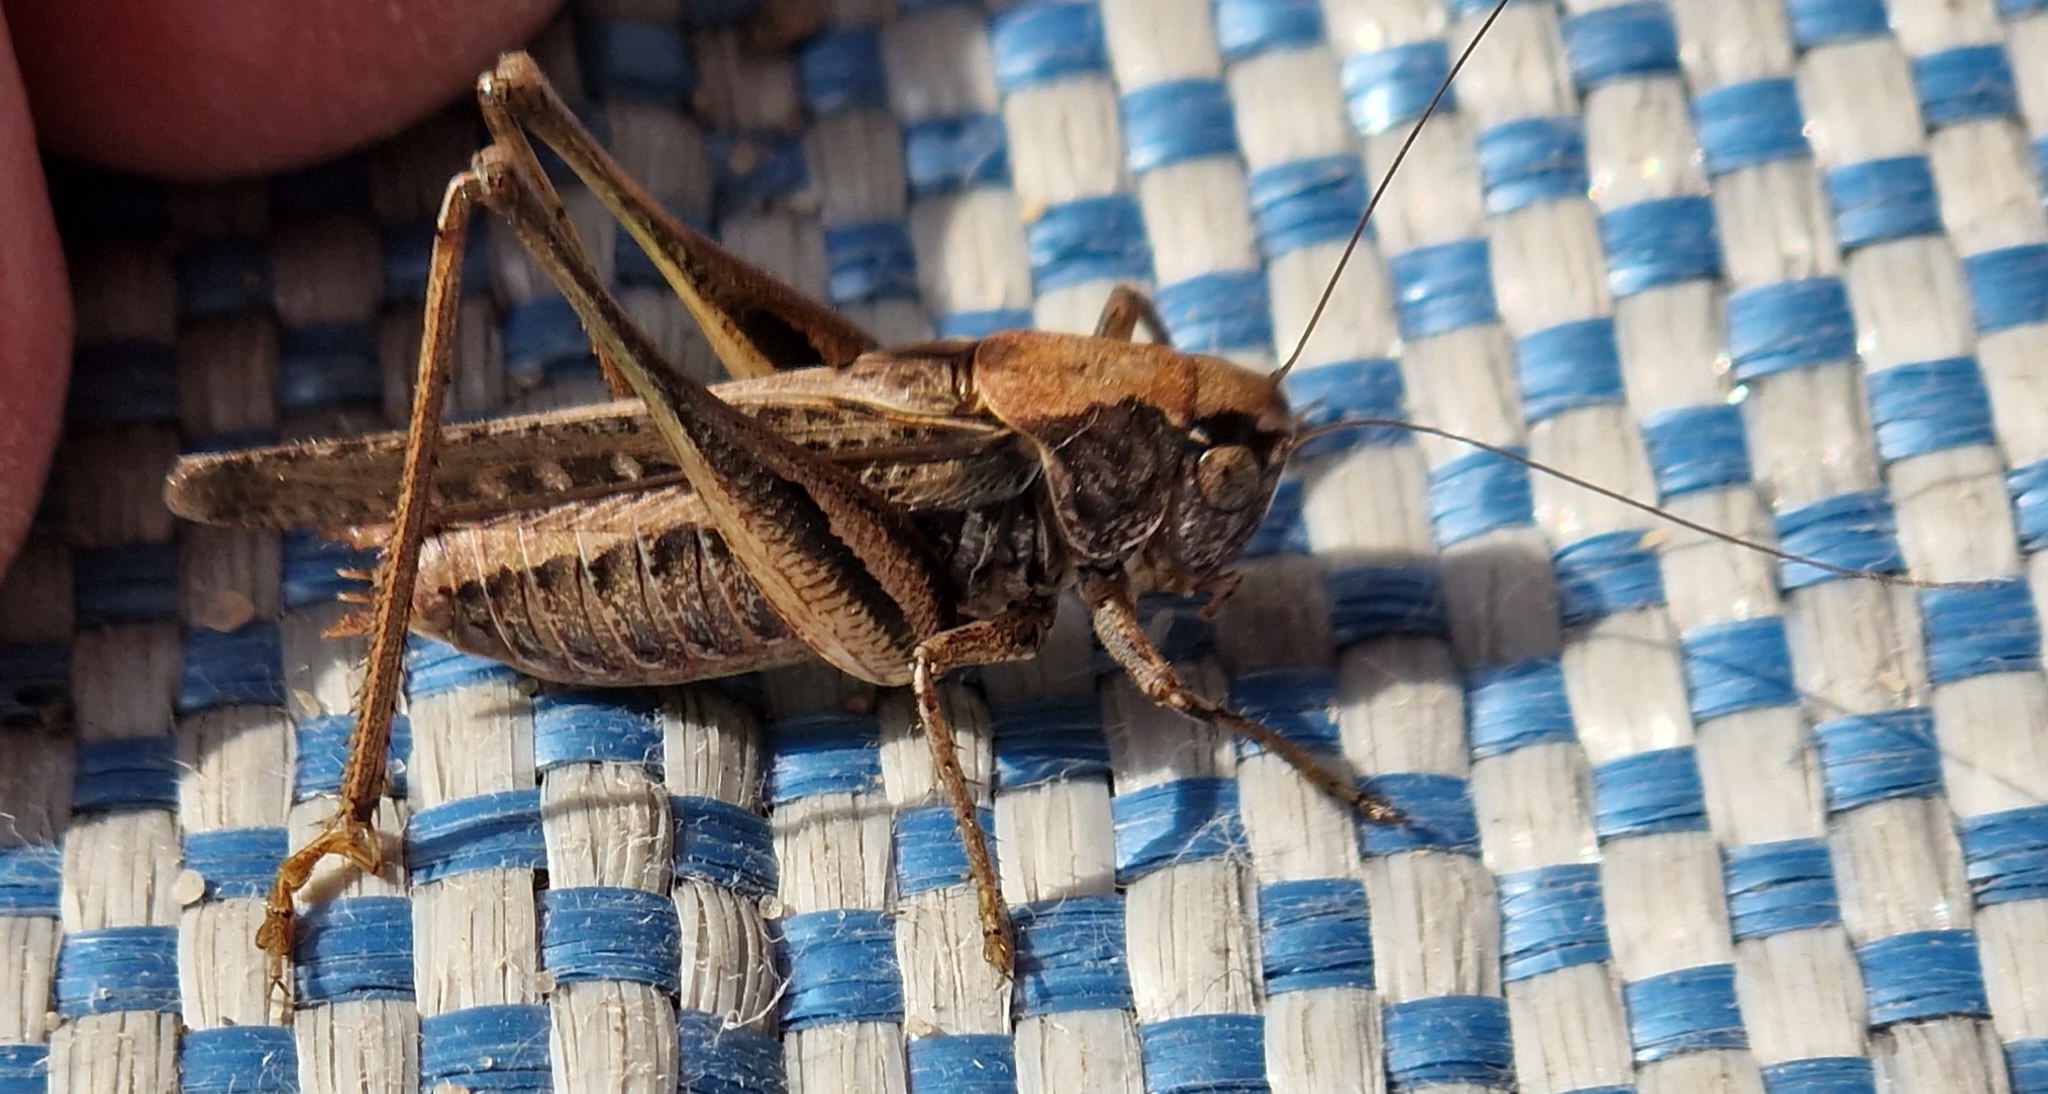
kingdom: Animalia
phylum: Arthropoda
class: Insecta
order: Orthoptera
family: Tettigoniidae
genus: Platycleis
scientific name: Platycleis albopunctata
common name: Sandgræshoppe
